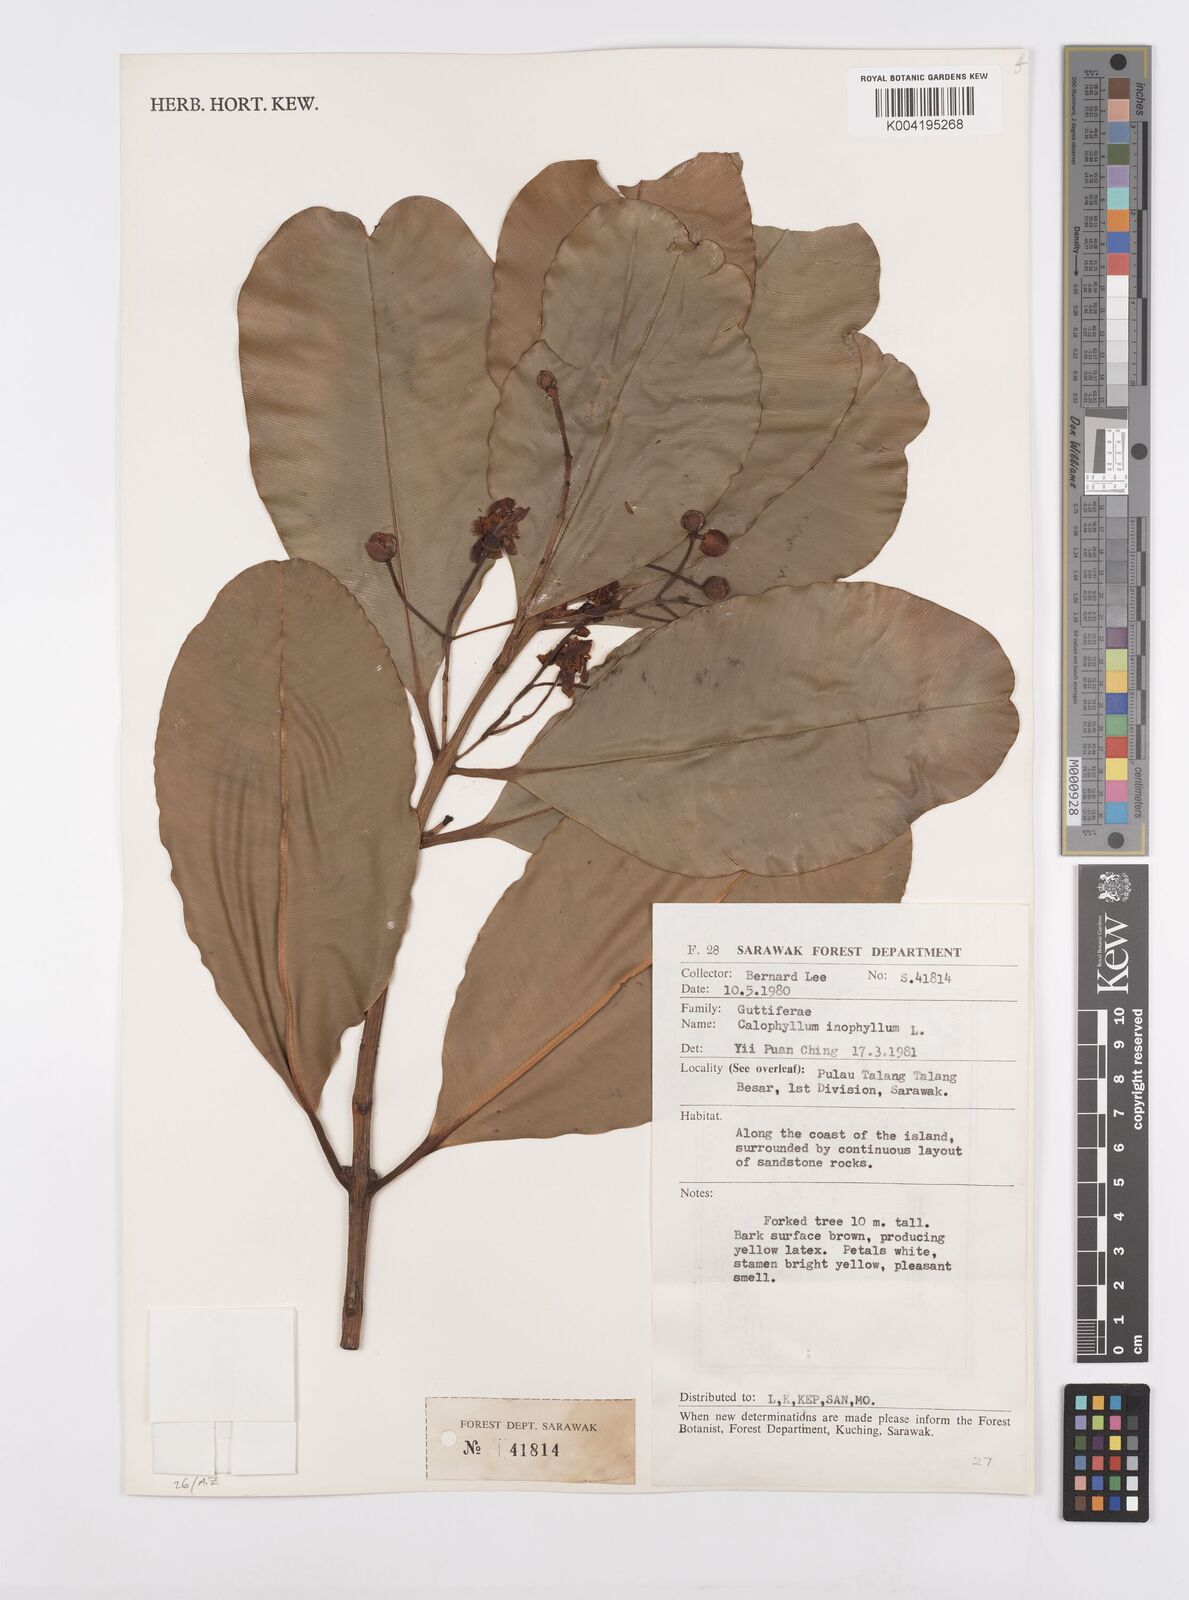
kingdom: Plantae
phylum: Tracheophyta
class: Magnoliopsida
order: Malpighiales
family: Calophyllaceae
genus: Calophyllum
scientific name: Calophyllum inophyllum
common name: Alexandrian laurel
